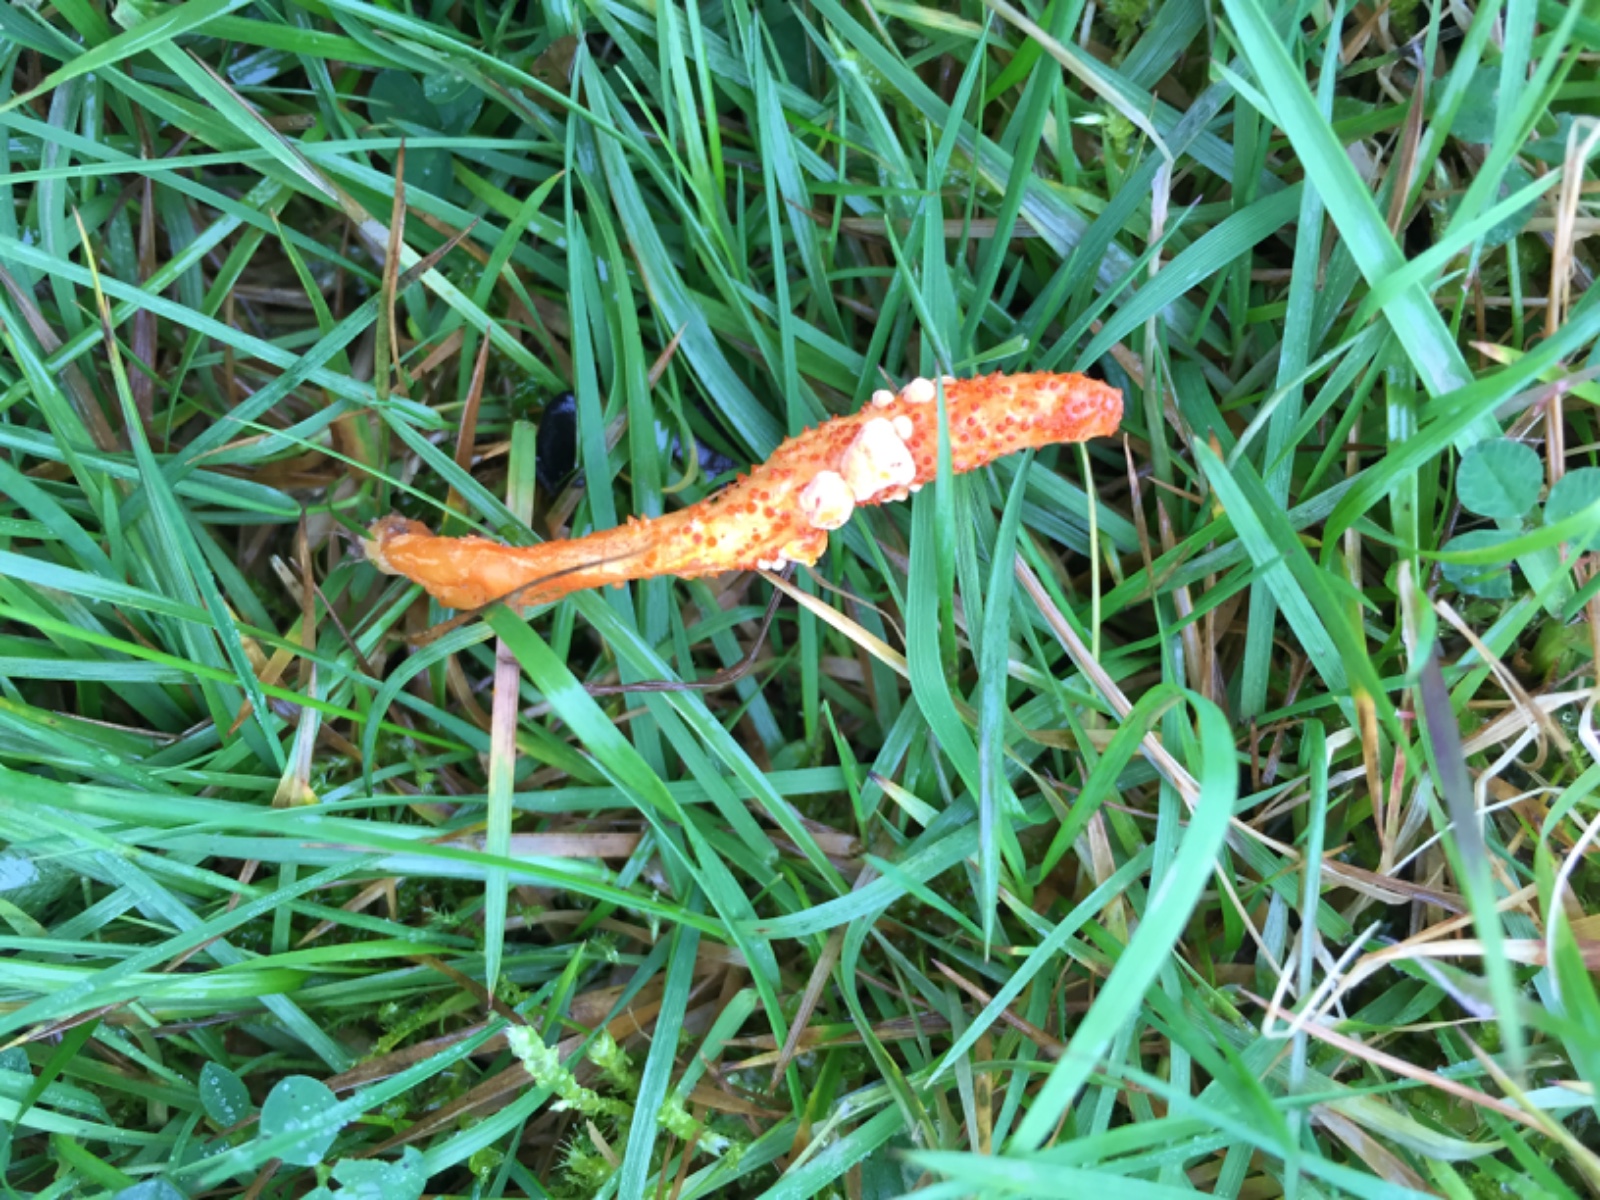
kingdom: Fungi
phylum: Ascomycota
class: Sordariomycetes
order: Hypocreales
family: Cordycipitaceae
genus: Cordyceps
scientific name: Cordyceps militaris
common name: puppe-snyltekølle
